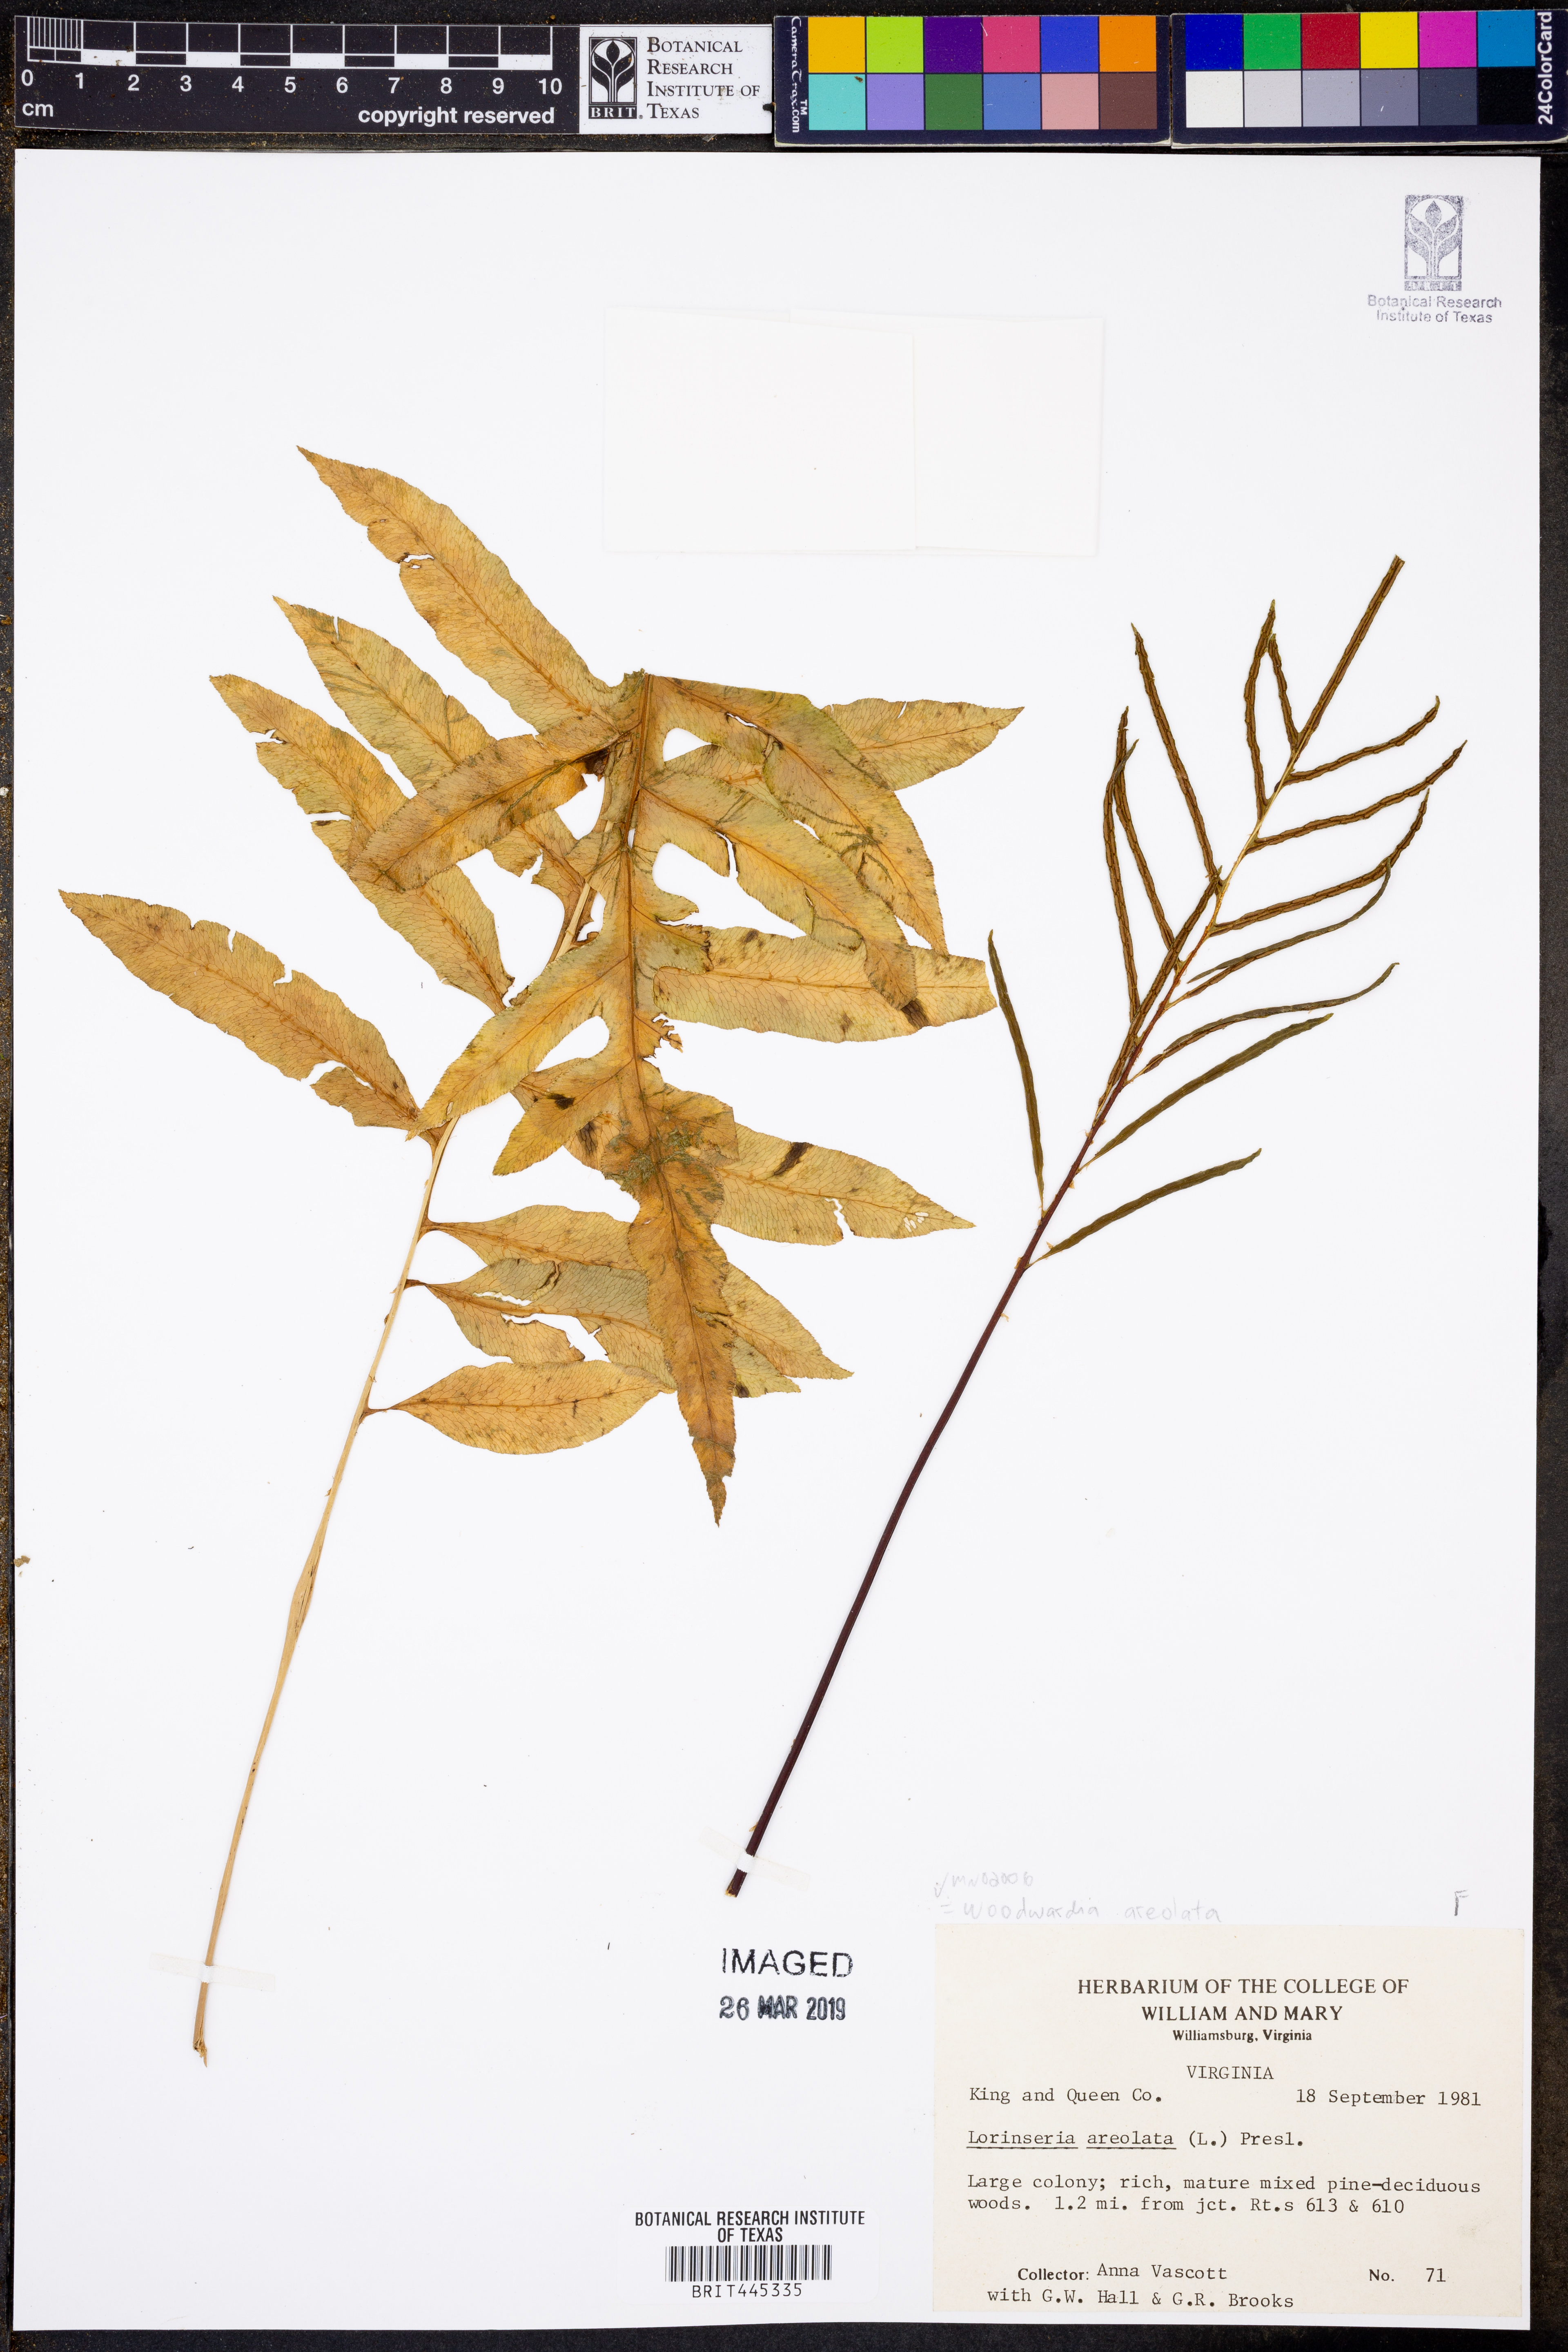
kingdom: Plantae
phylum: Tracheophyta
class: Polypodiopsida
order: Polypodiales
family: Blechnaceae
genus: Lorinseria
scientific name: Lorinseria areolata
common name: Dwarf chain fern
